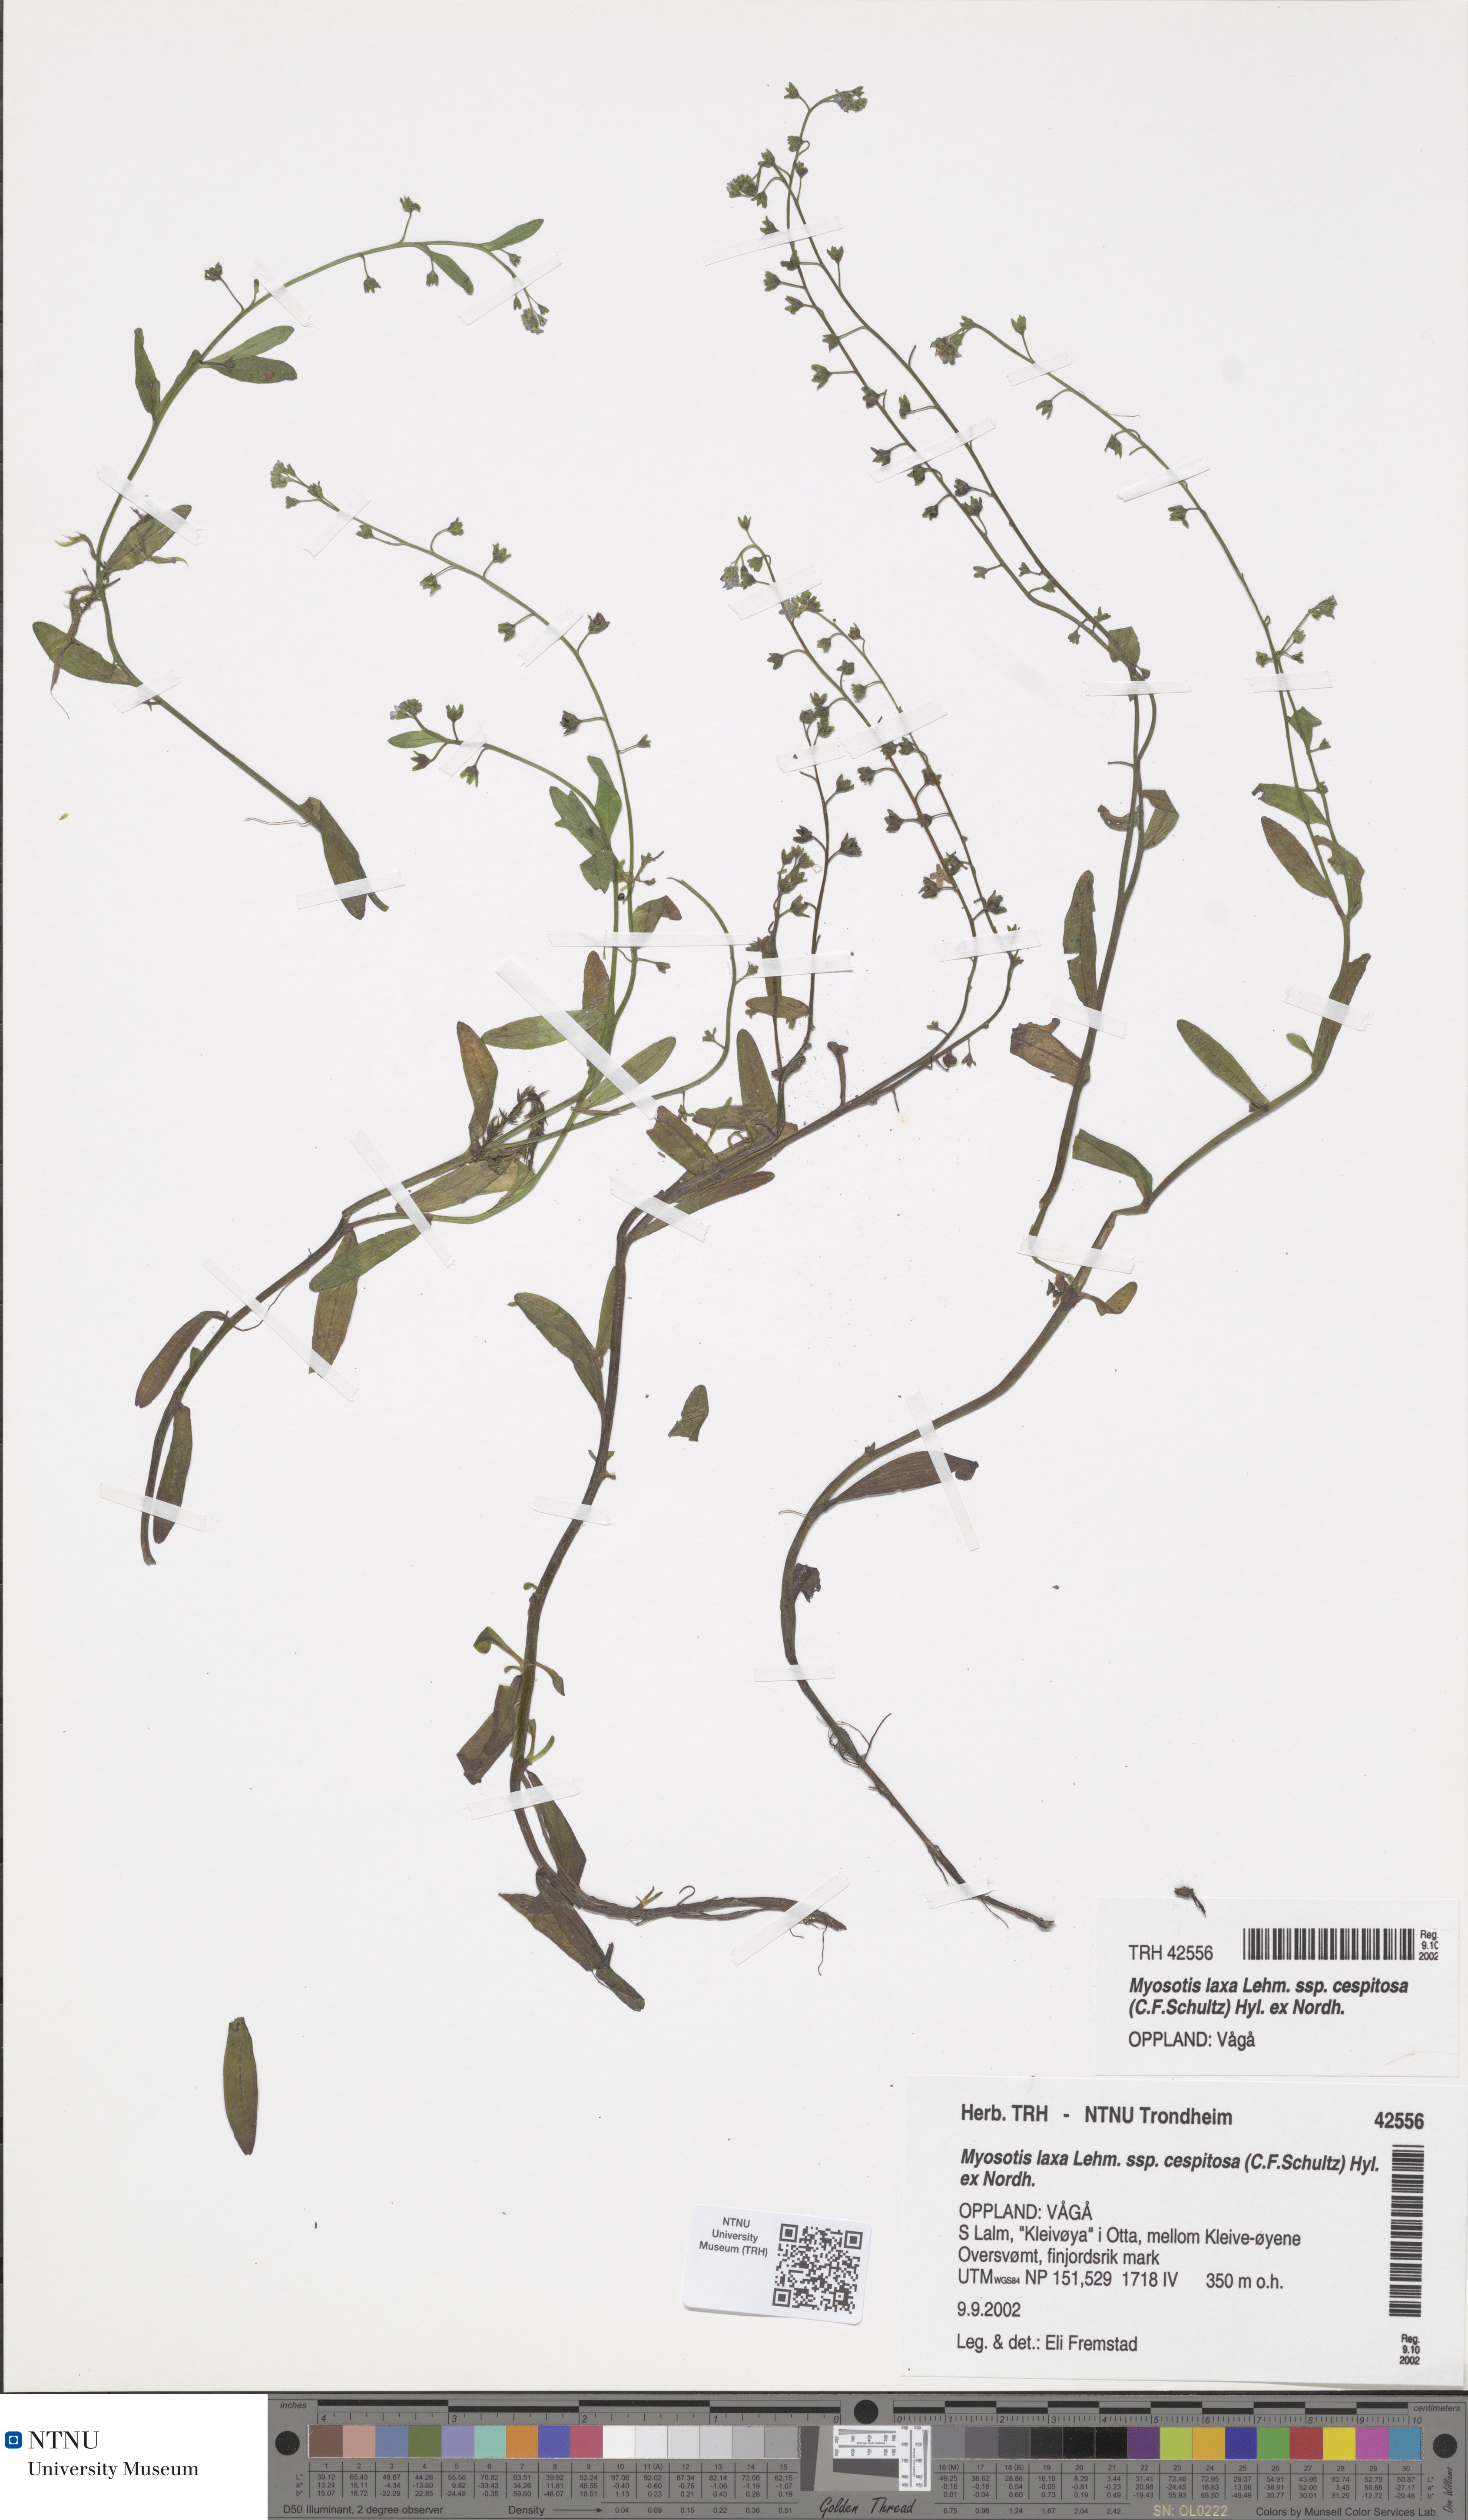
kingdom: Plantae
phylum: Tracheophyta
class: Magnoliopsida
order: Boraginales
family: Boraginaceae
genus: Myosotis
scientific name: Myosotis laxa
